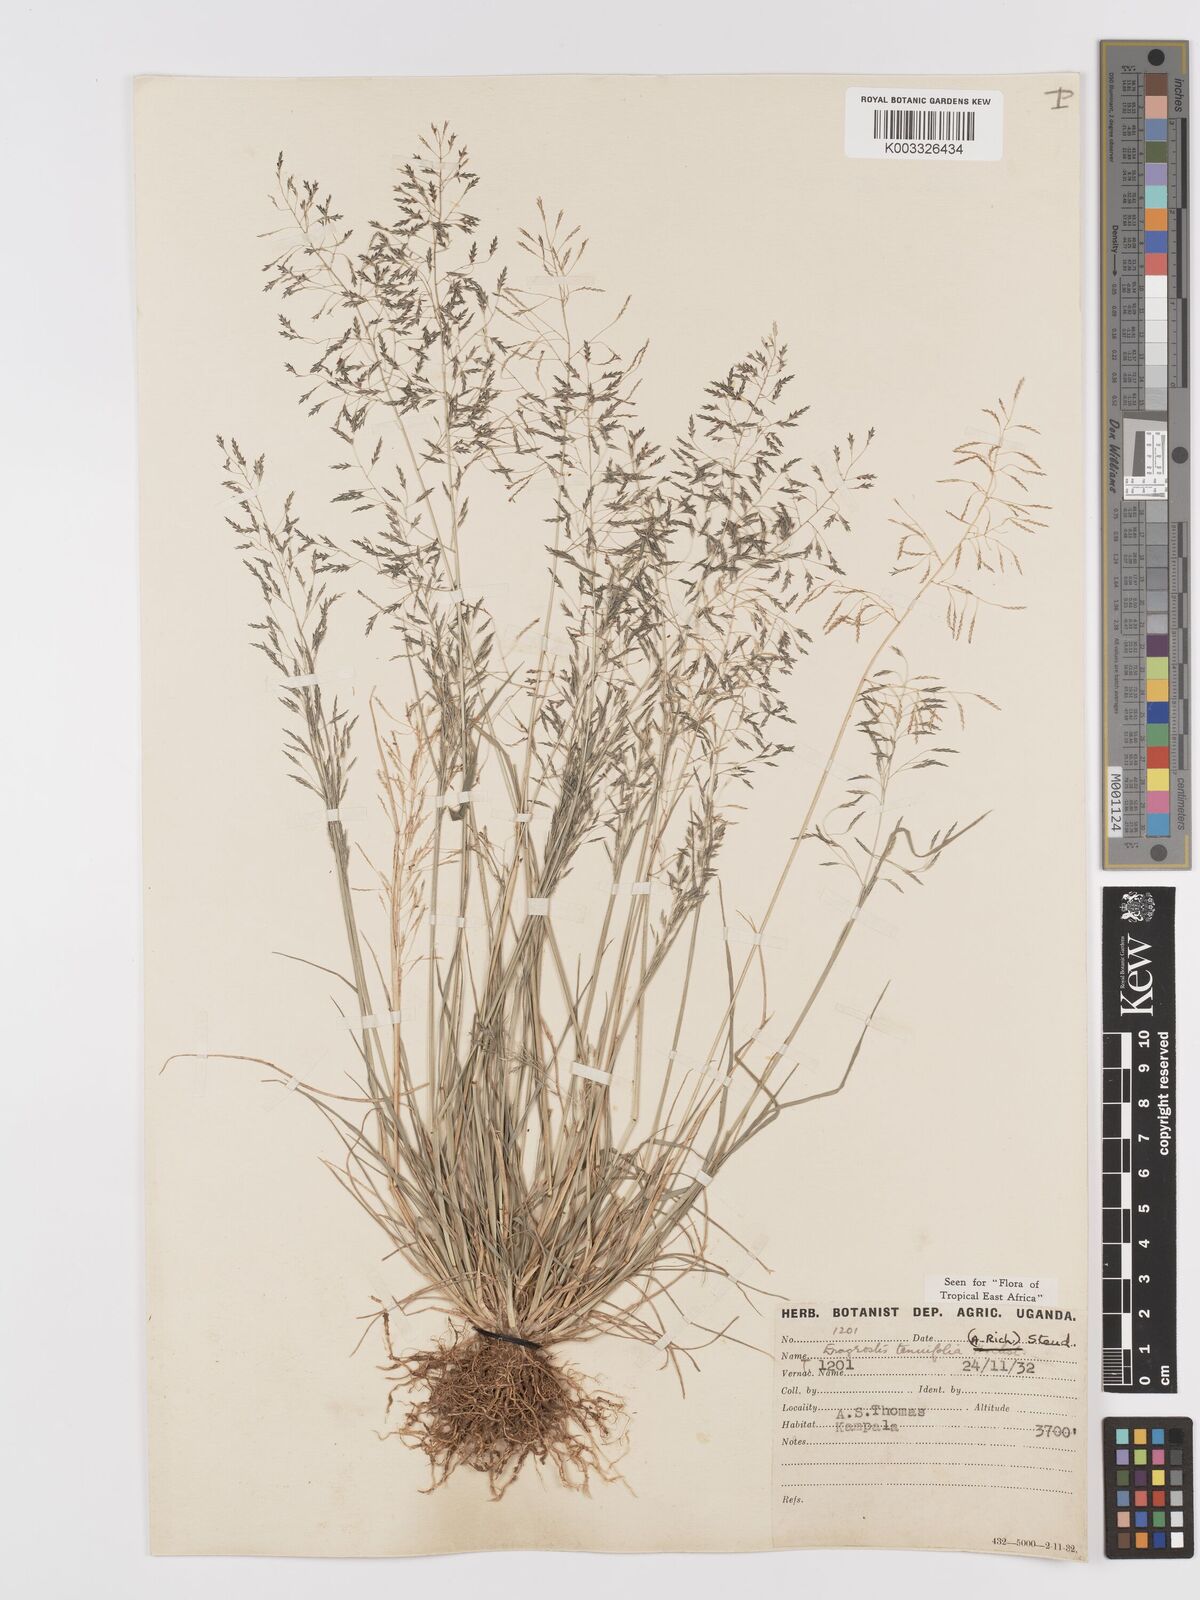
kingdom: Plantae
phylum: Tracheophyta
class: Liliopsida
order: Poales
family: Poaceae
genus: Eragrostis
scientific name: Eragrostis tenuifolia
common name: Elastic grass
